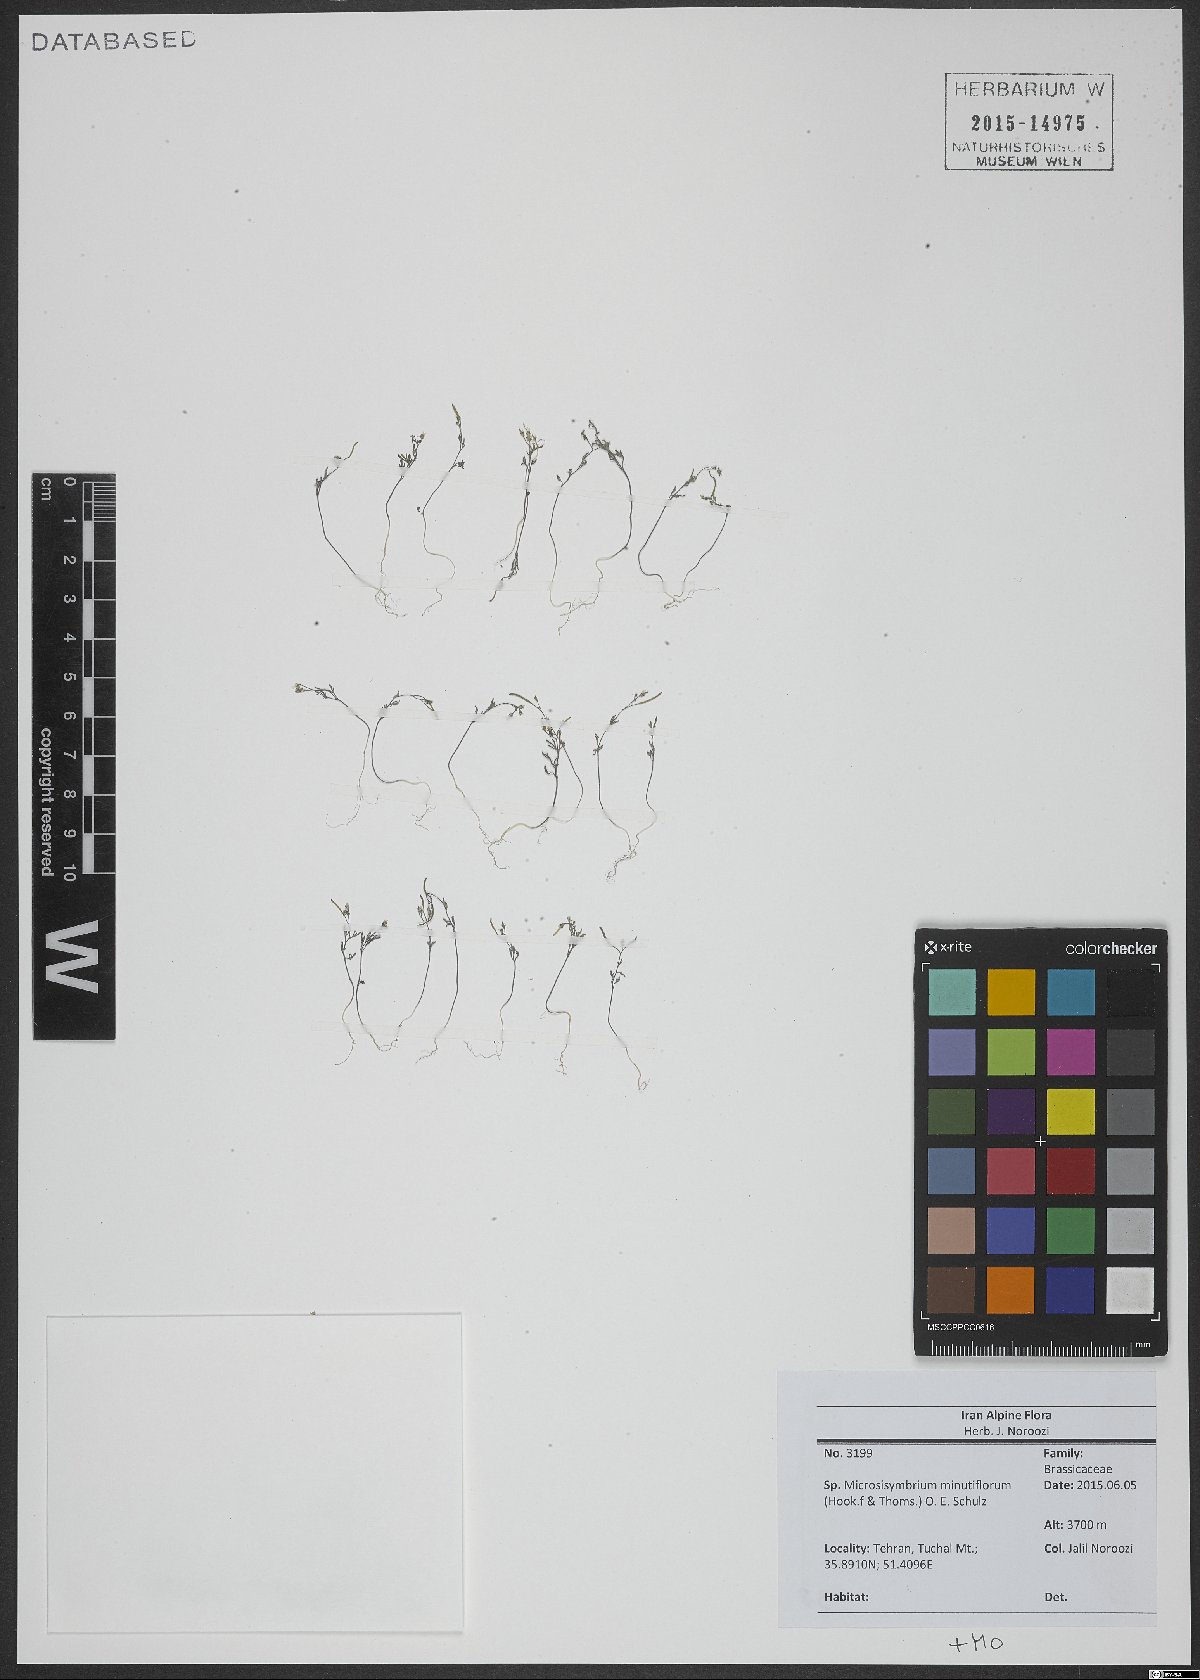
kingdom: Plantae
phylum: Tracheophyta
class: Magnoliopsida
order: Brassicales
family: Brassicaceae
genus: Ianhedgea
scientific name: Ianhedgea minutiflora
